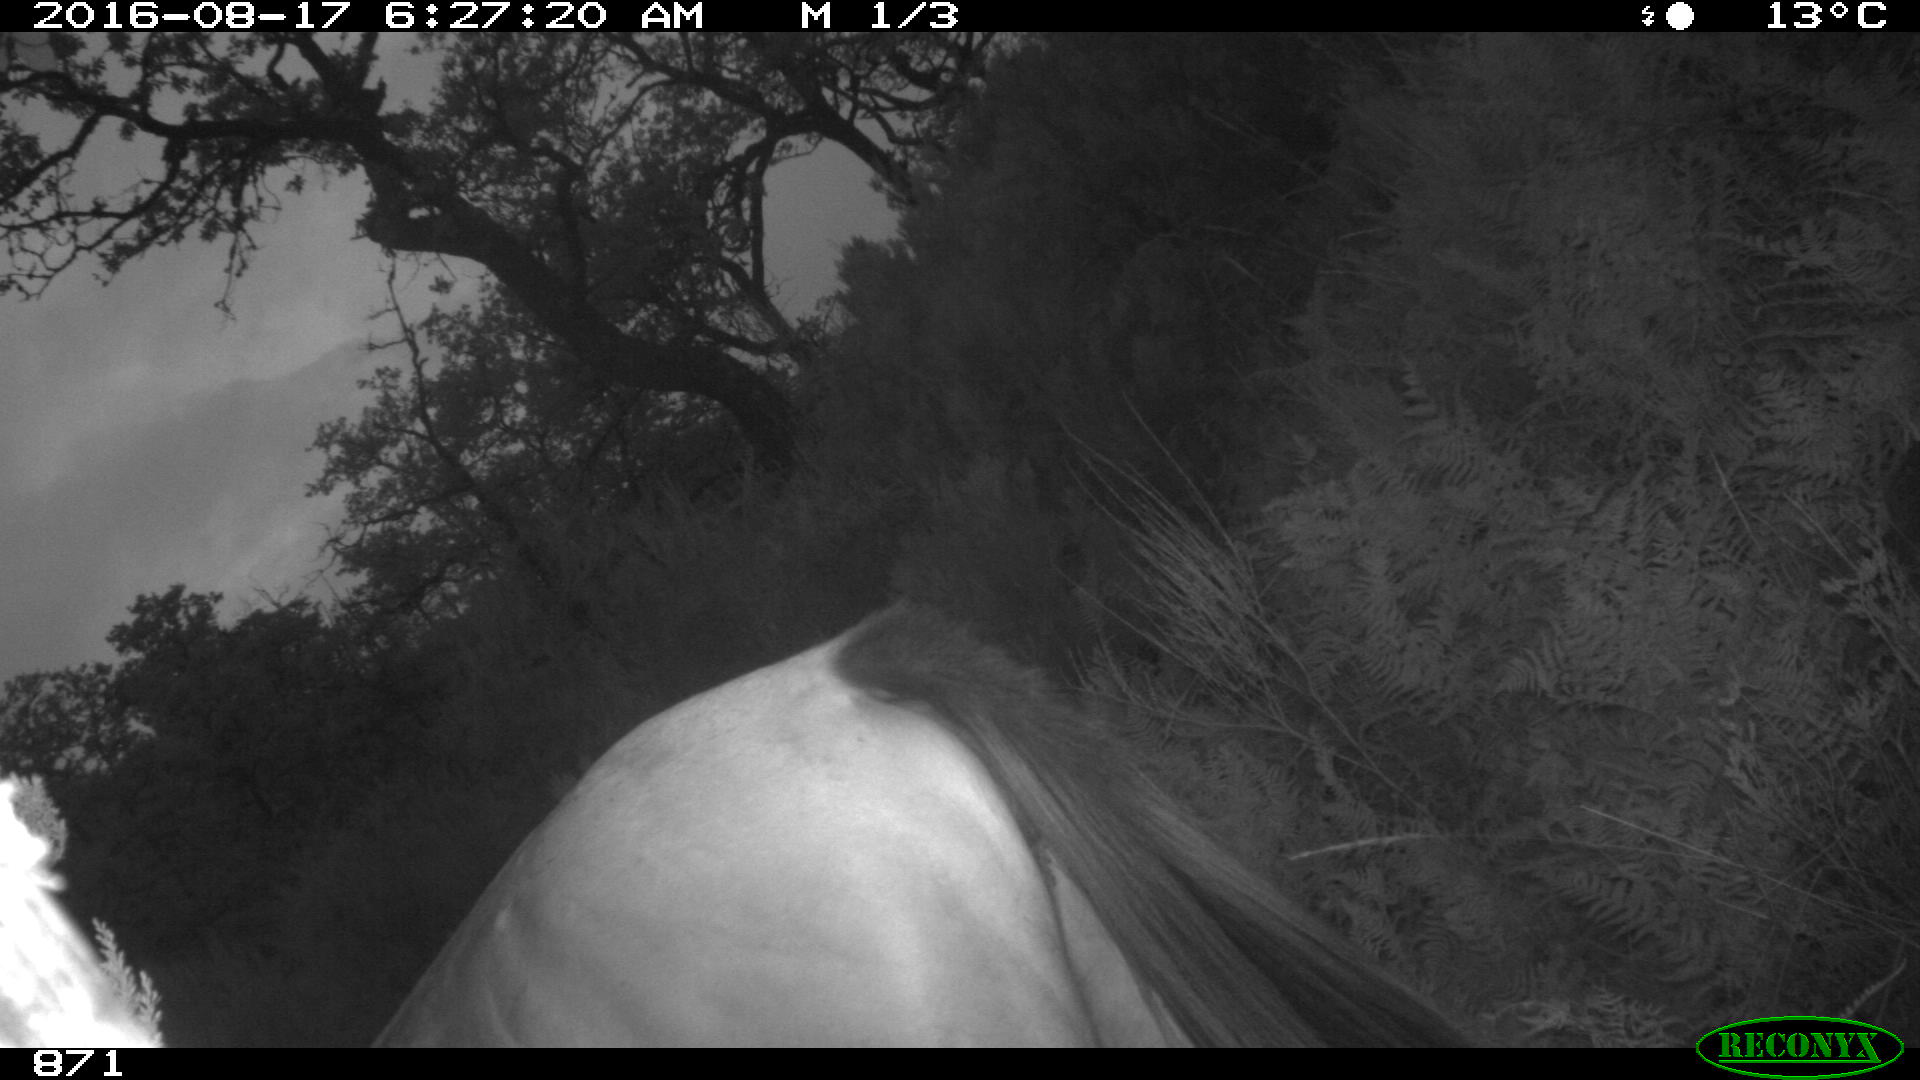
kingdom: Animalia
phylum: Chordata
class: Mammalia
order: Perissodactyla
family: Equidae
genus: Equus
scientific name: Equus caballus
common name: Horse
